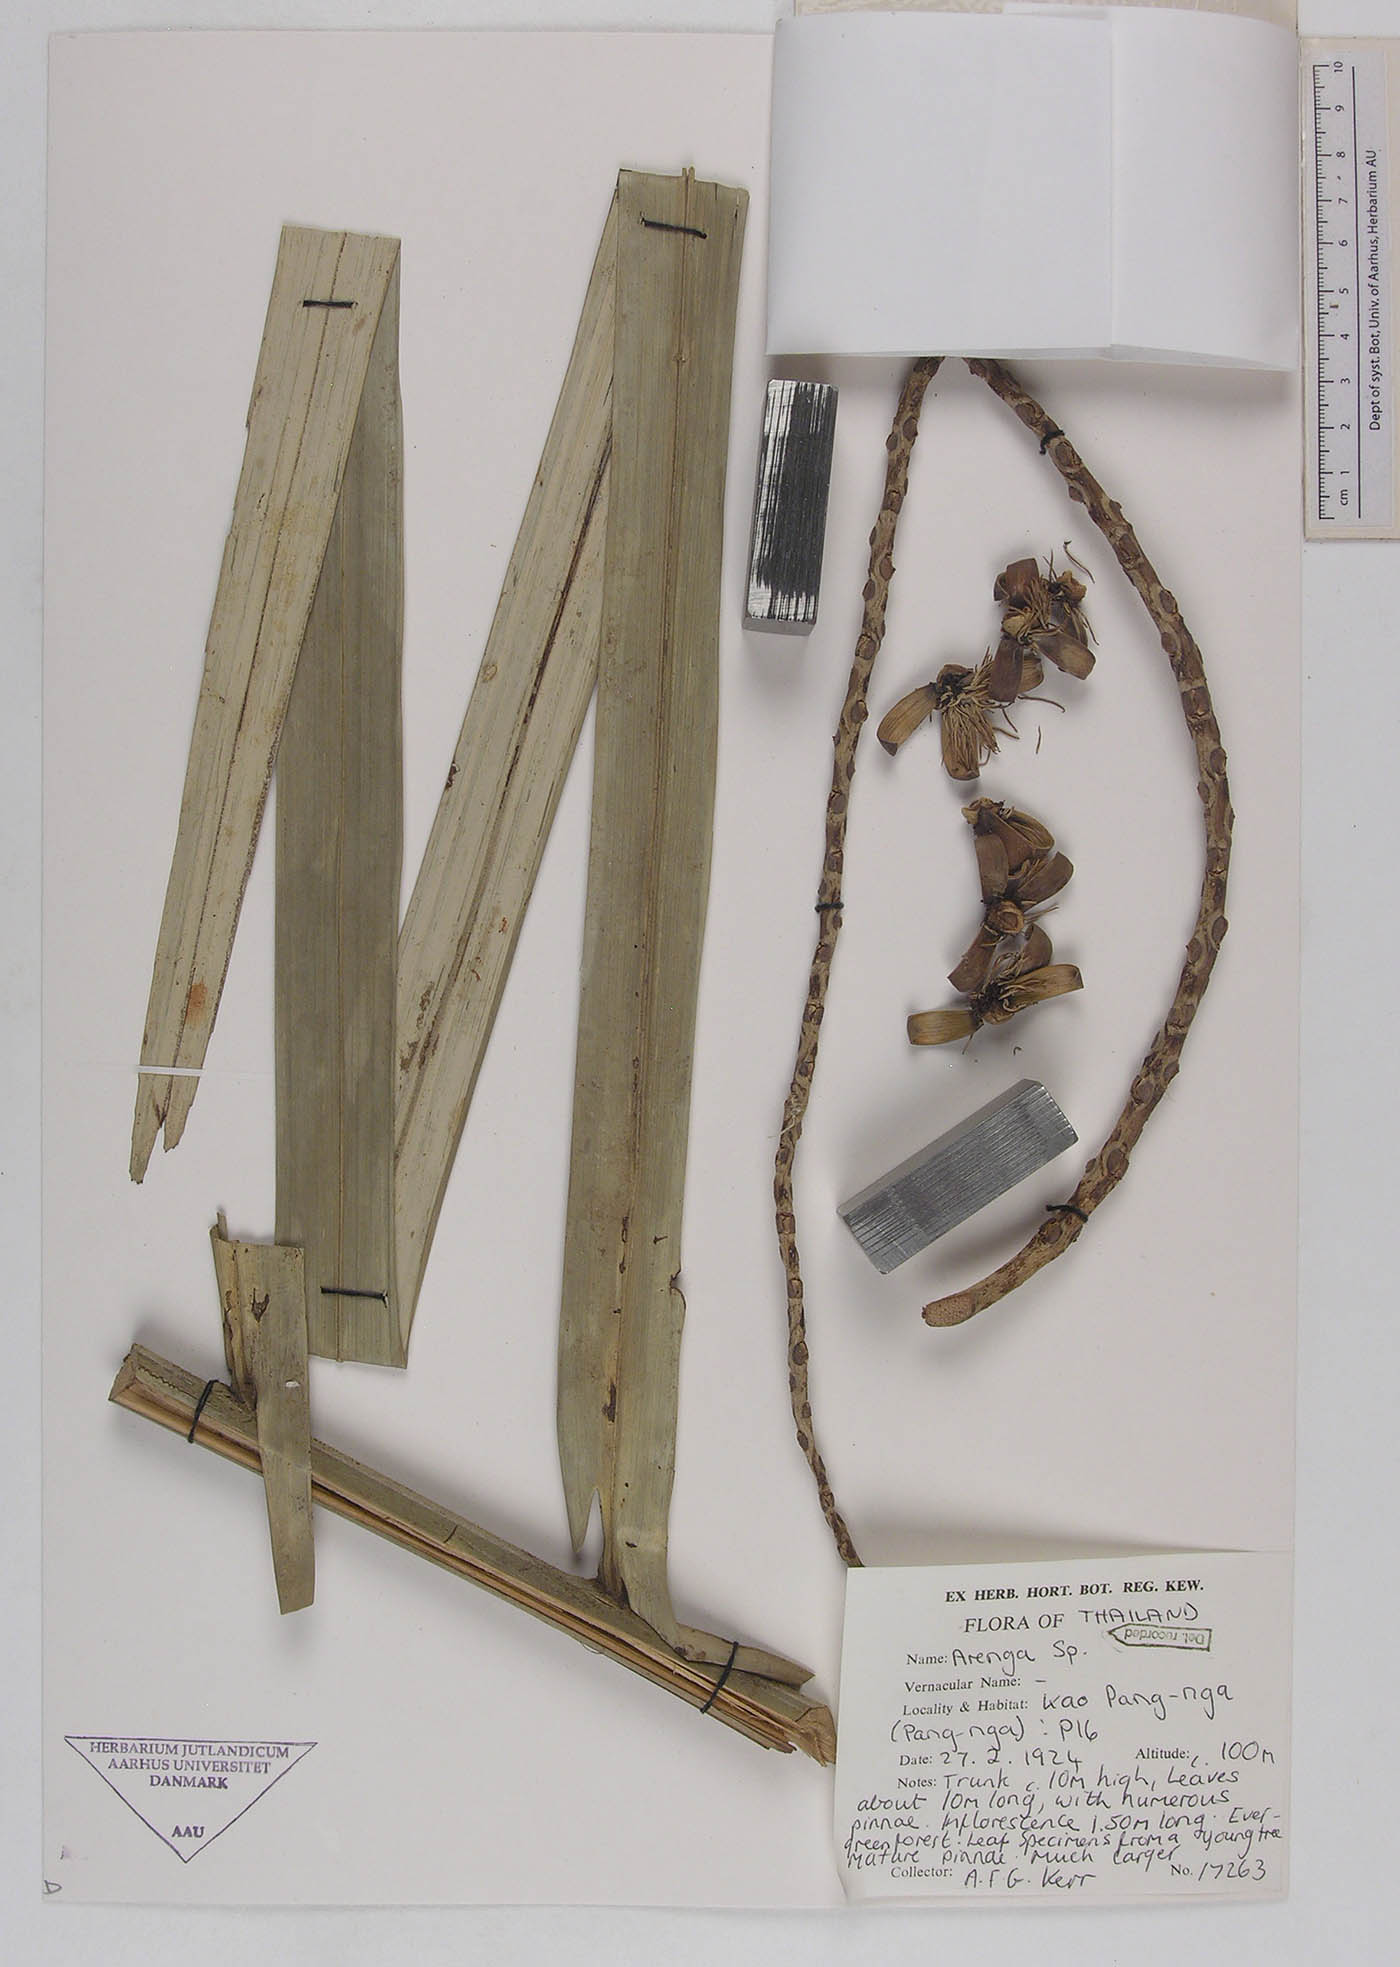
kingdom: Plantae
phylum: Tracheophyta
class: Liliopsida
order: Arecales
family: Arecaceae
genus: Arenga
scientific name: Arenga
